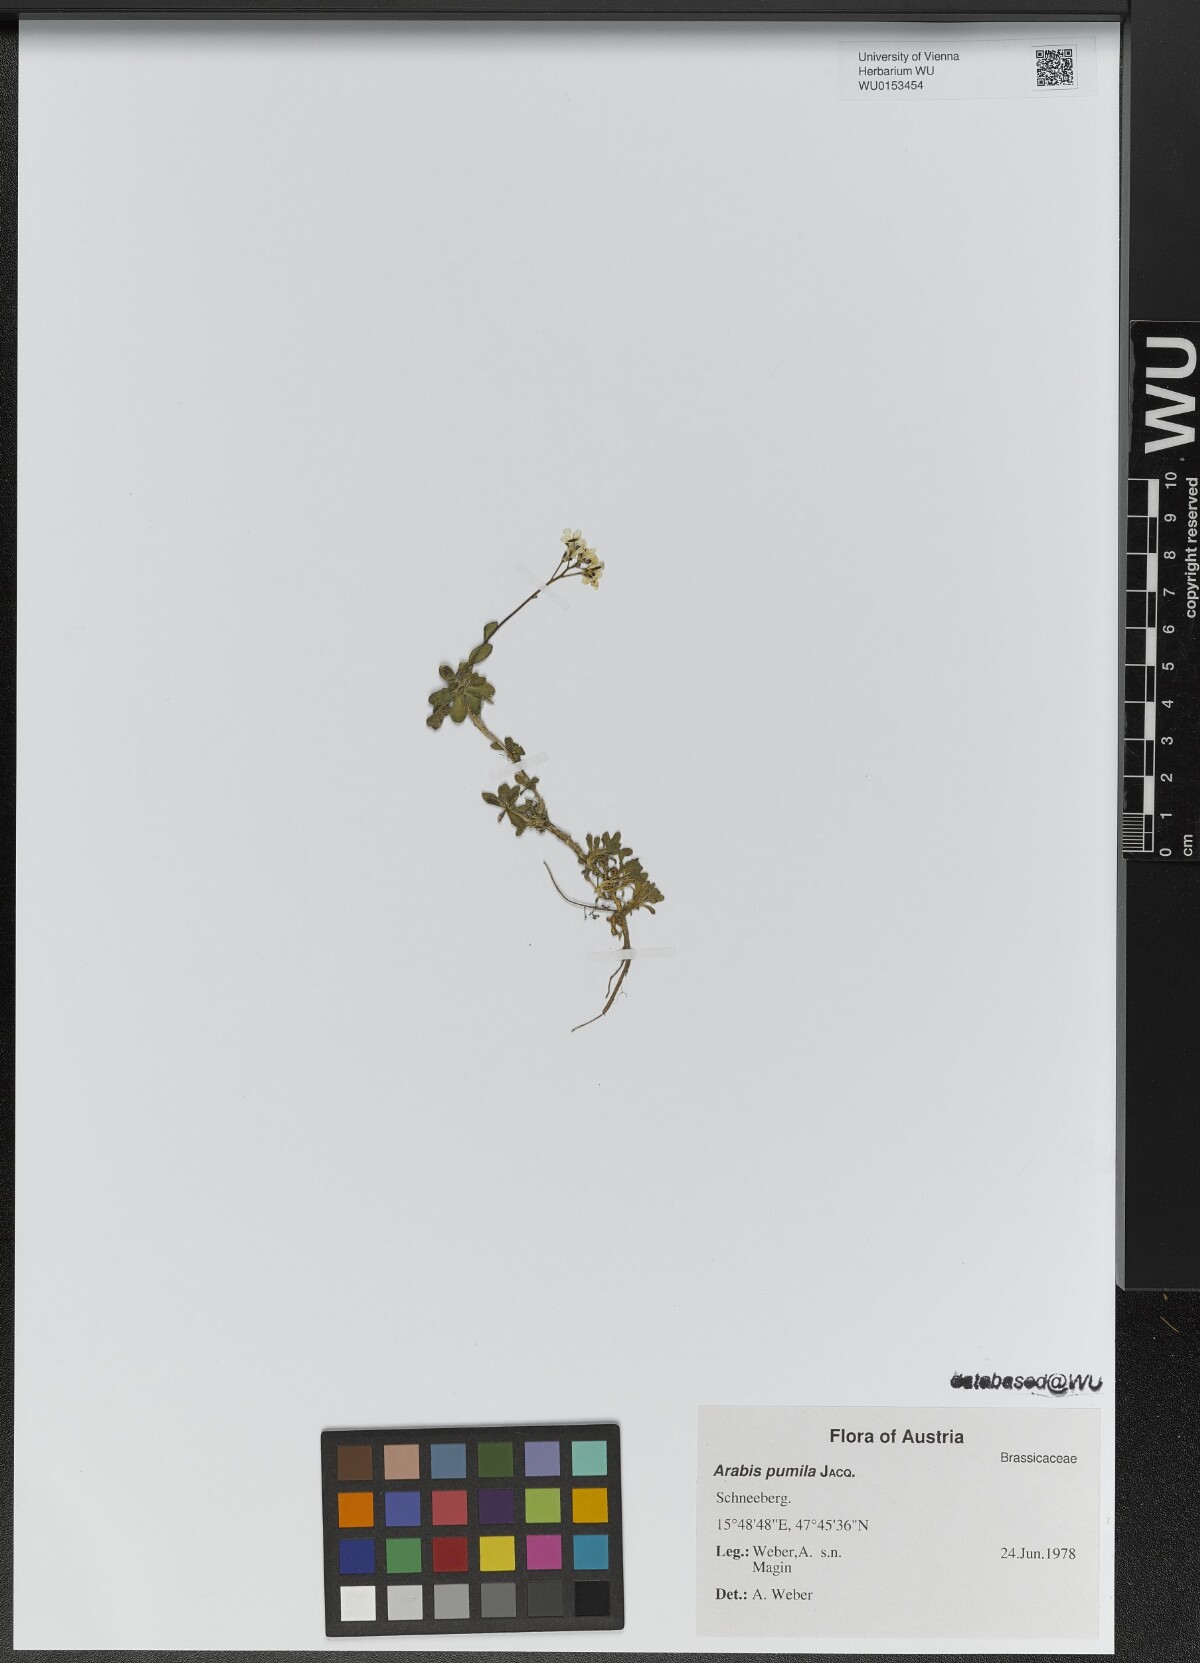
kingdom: Plantae
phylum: Tracheophyta
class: Magnoliopsida
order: Brassicales
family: Brassicaceae
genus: Arabis
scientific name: Arabis pumila
